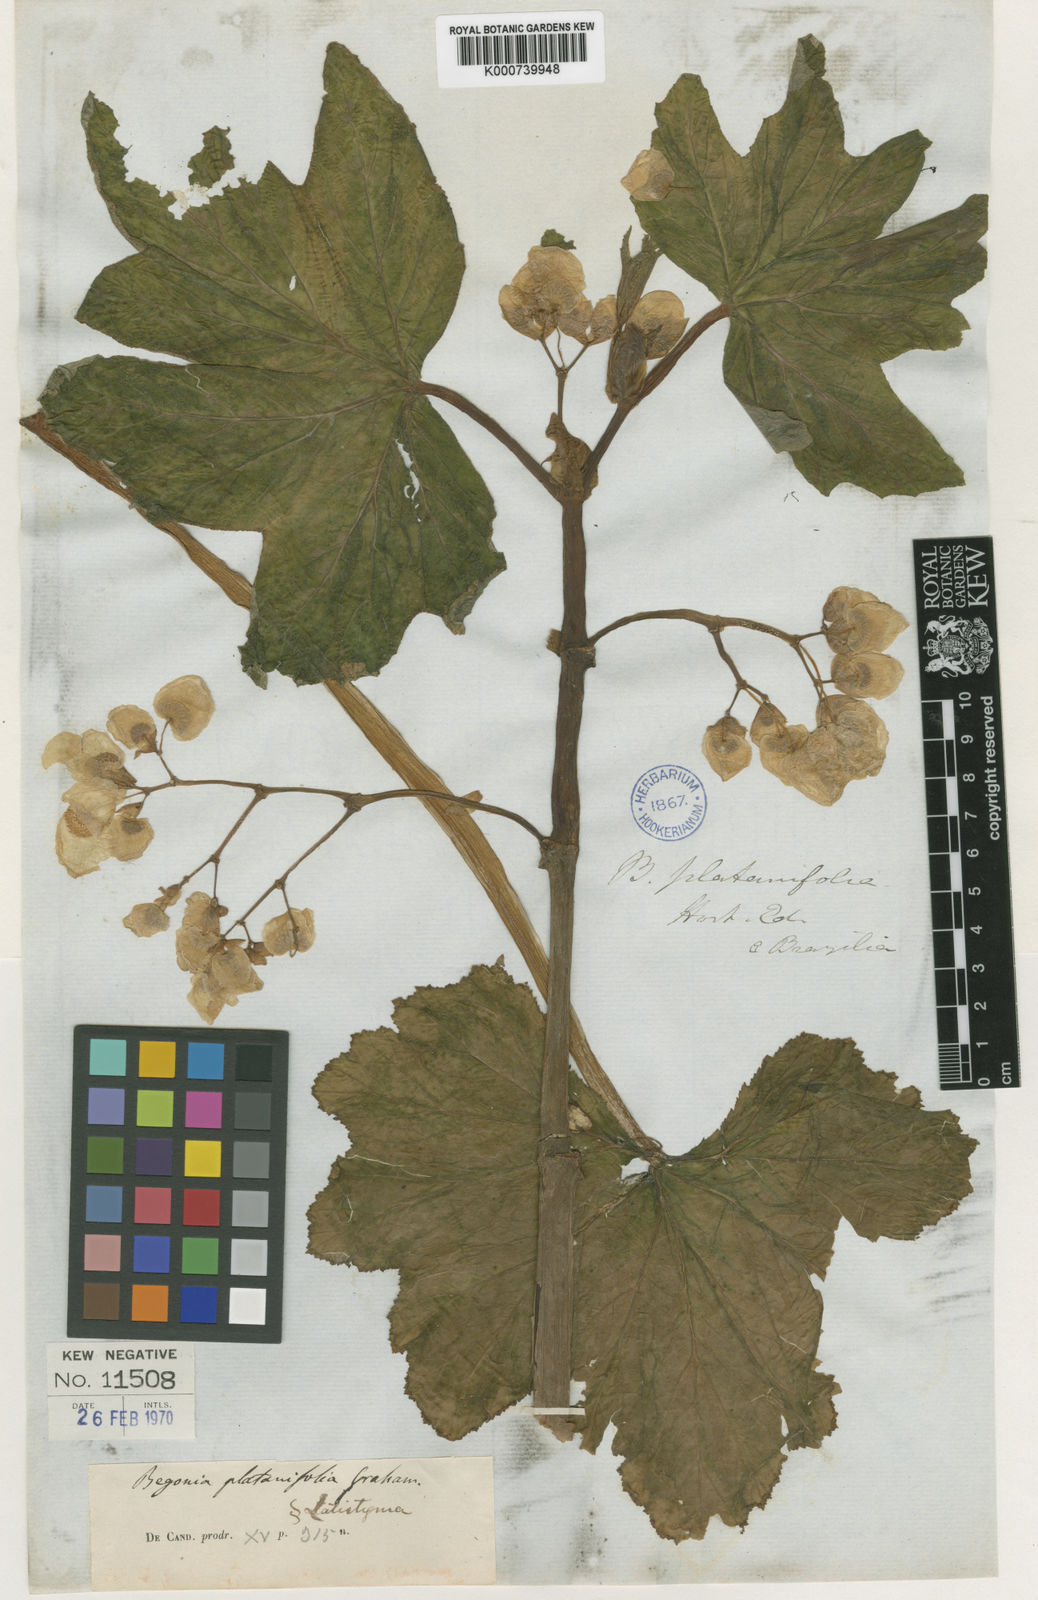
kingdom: Plantae
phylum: Tracheophyta
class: Magnoliopsida
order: Cucurbitales
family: Begoniaceae
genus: Begonia
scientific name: Begonia platanifolia
